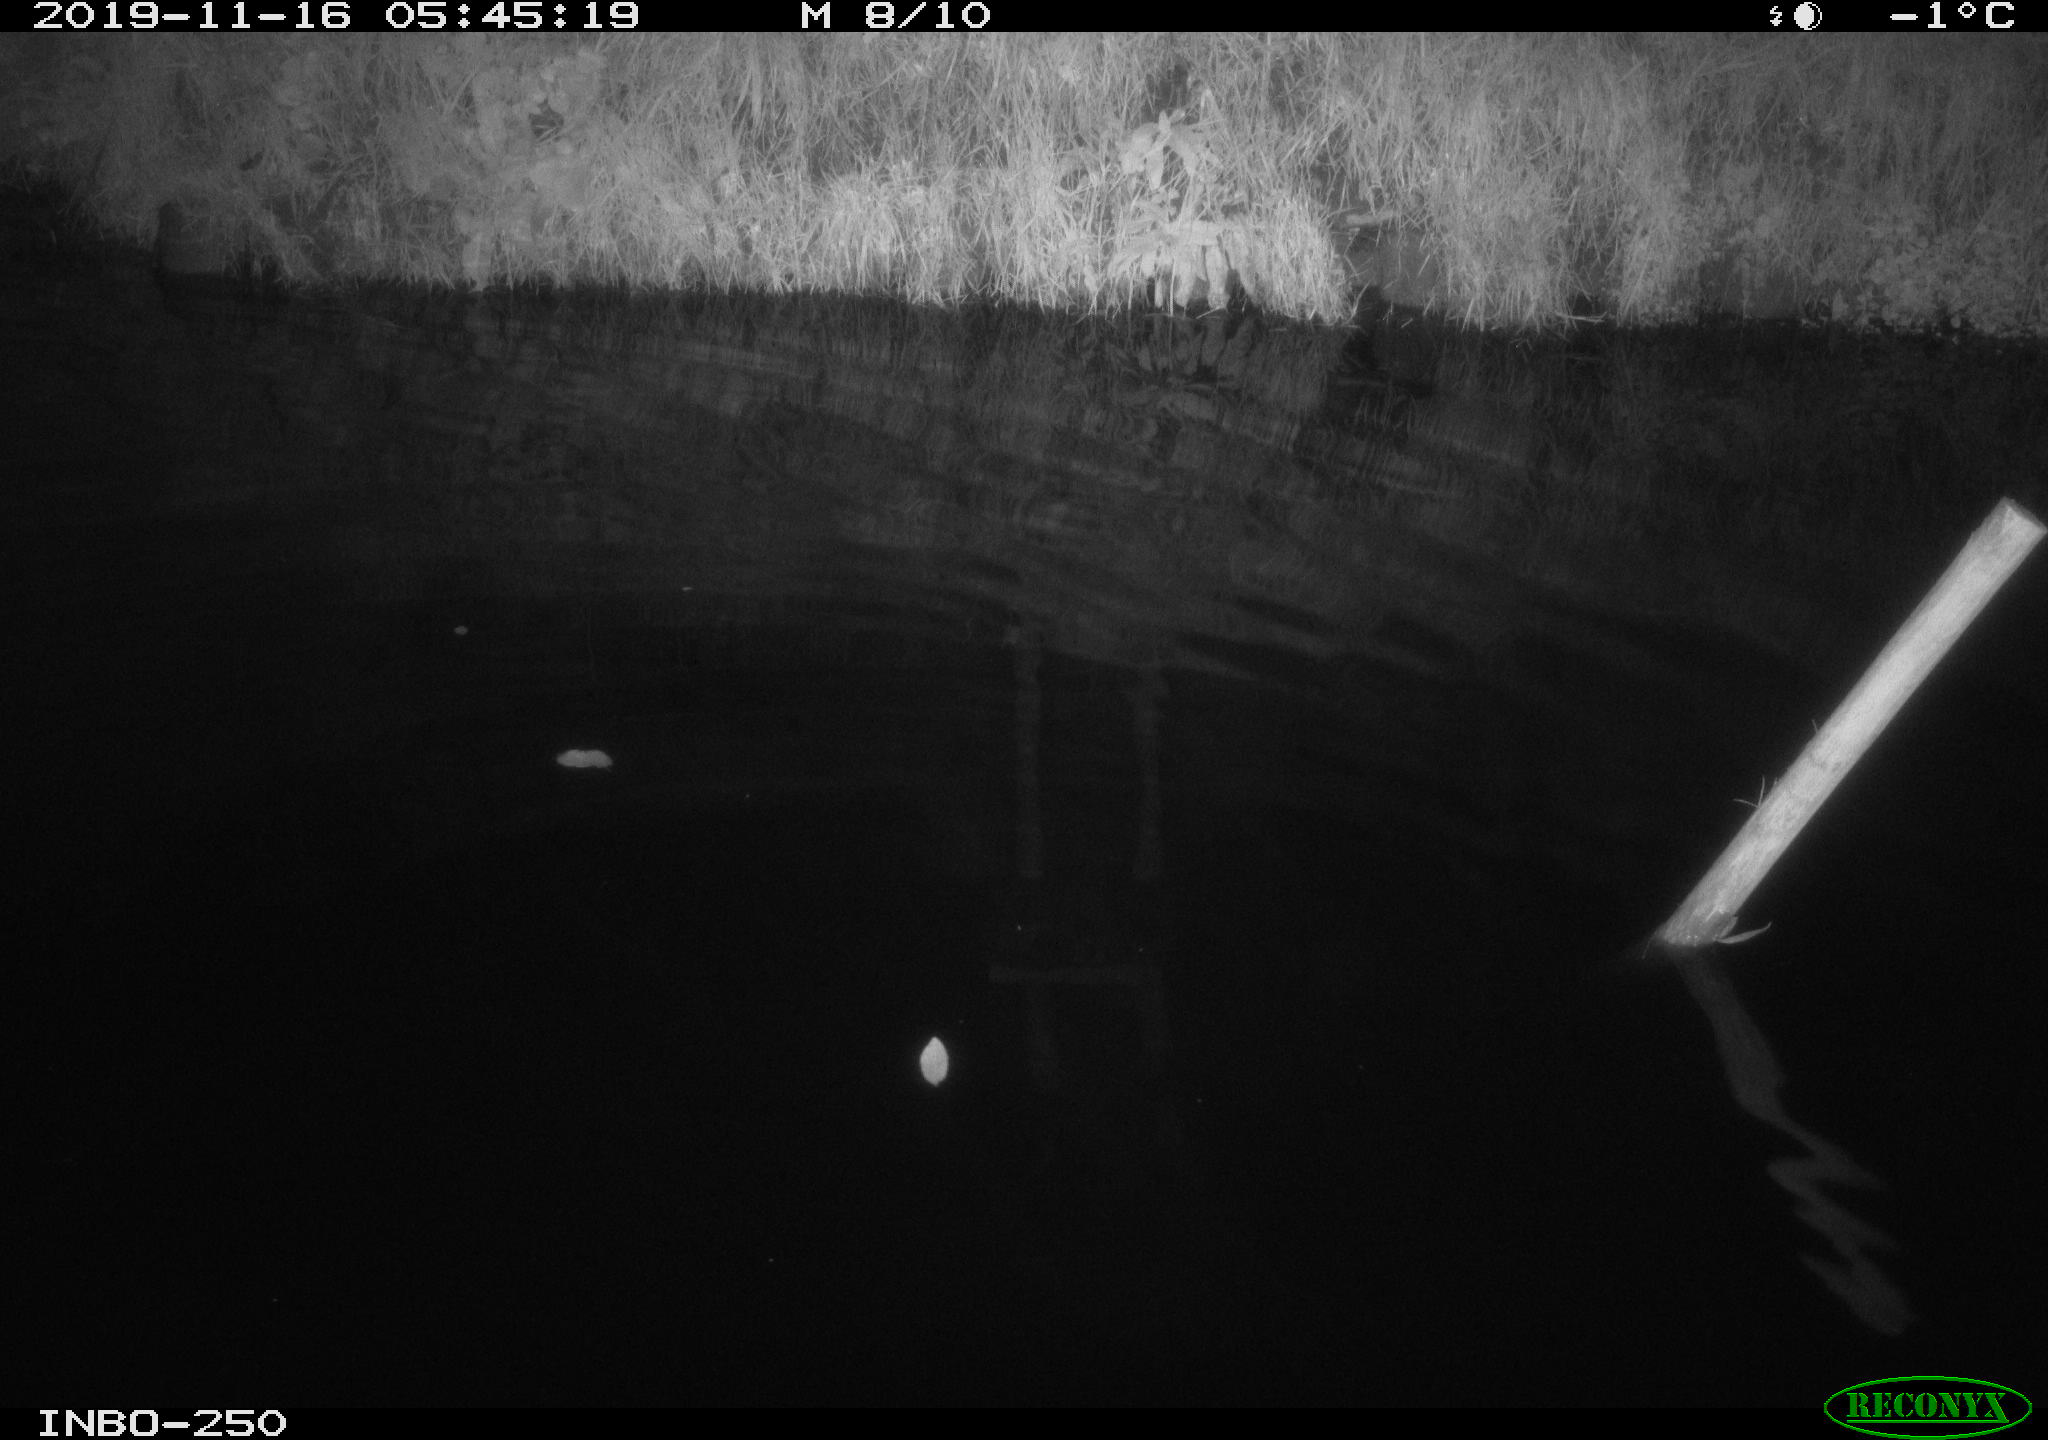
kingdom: Animalia
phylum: Chordata
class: Aves
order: Anseriformes
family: Anatidae
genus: Anas
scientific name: Anas platyrhynchos
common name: Mallard
